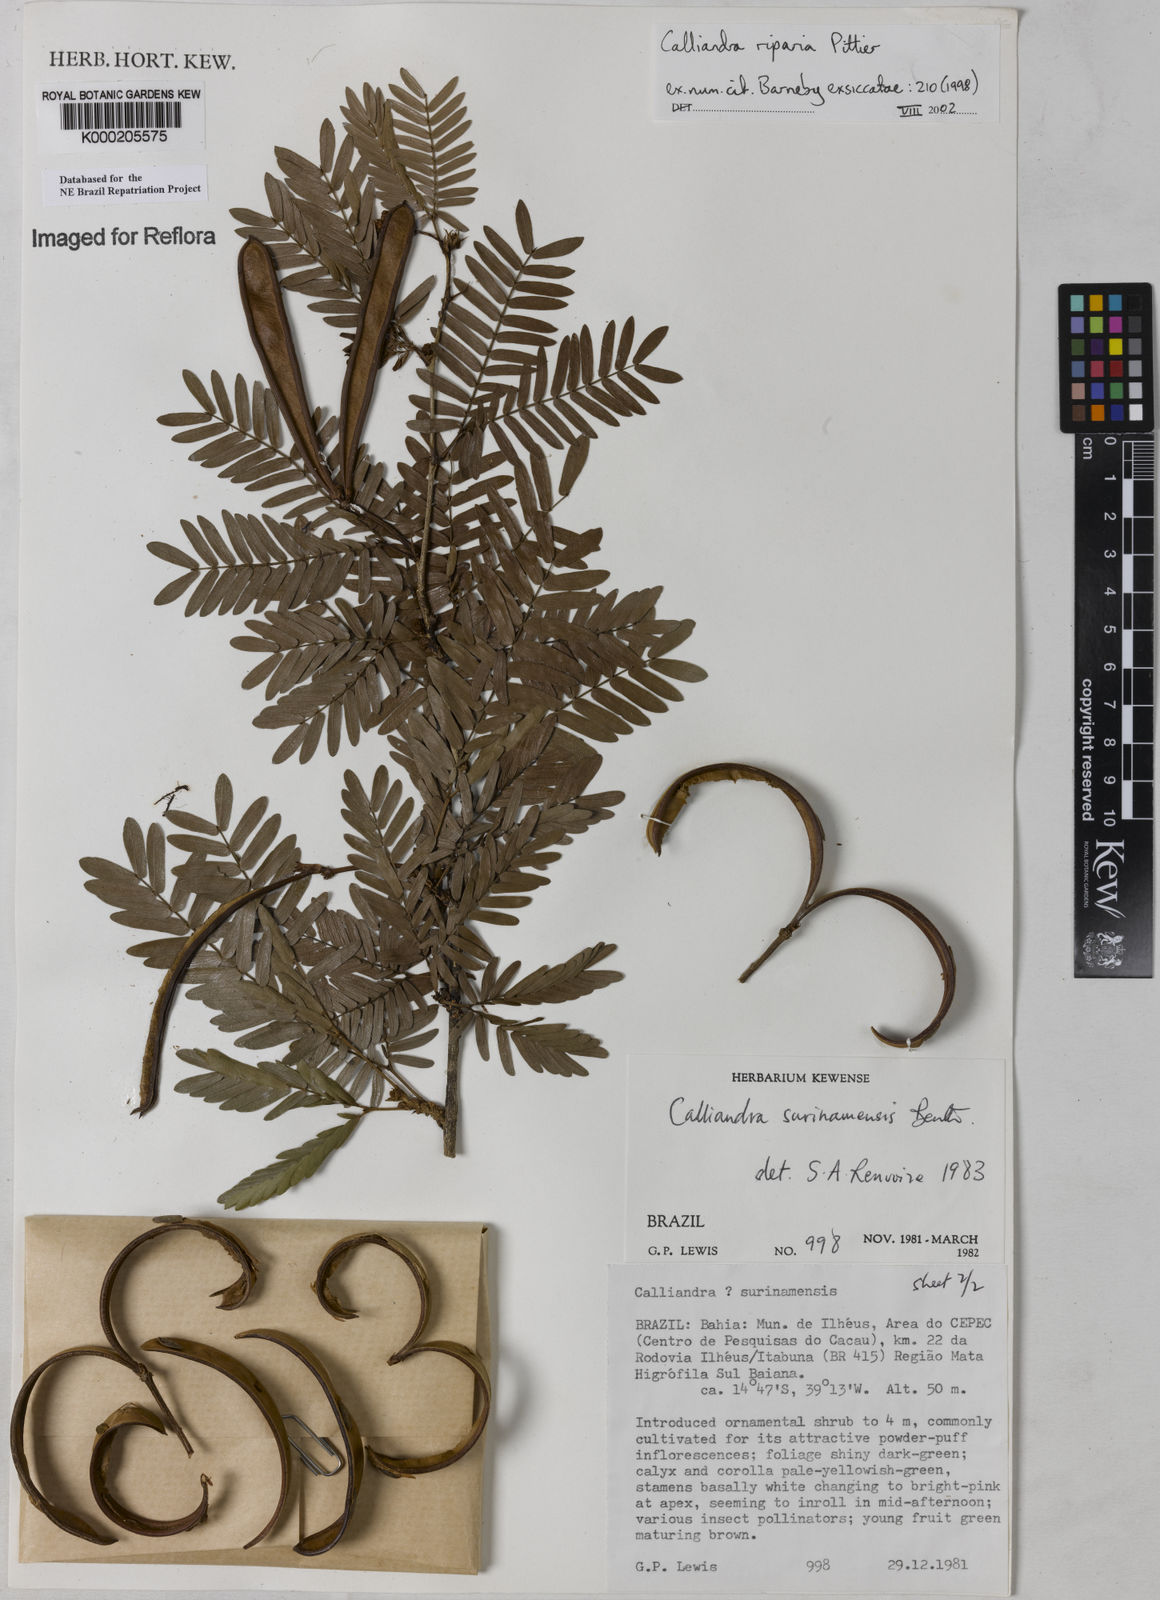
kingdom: Plantae
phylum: Tracheophyta
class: Magnoliopsida
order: Fabales
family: Fabaceae
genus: Calliandra
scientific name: Calliandra riparia
